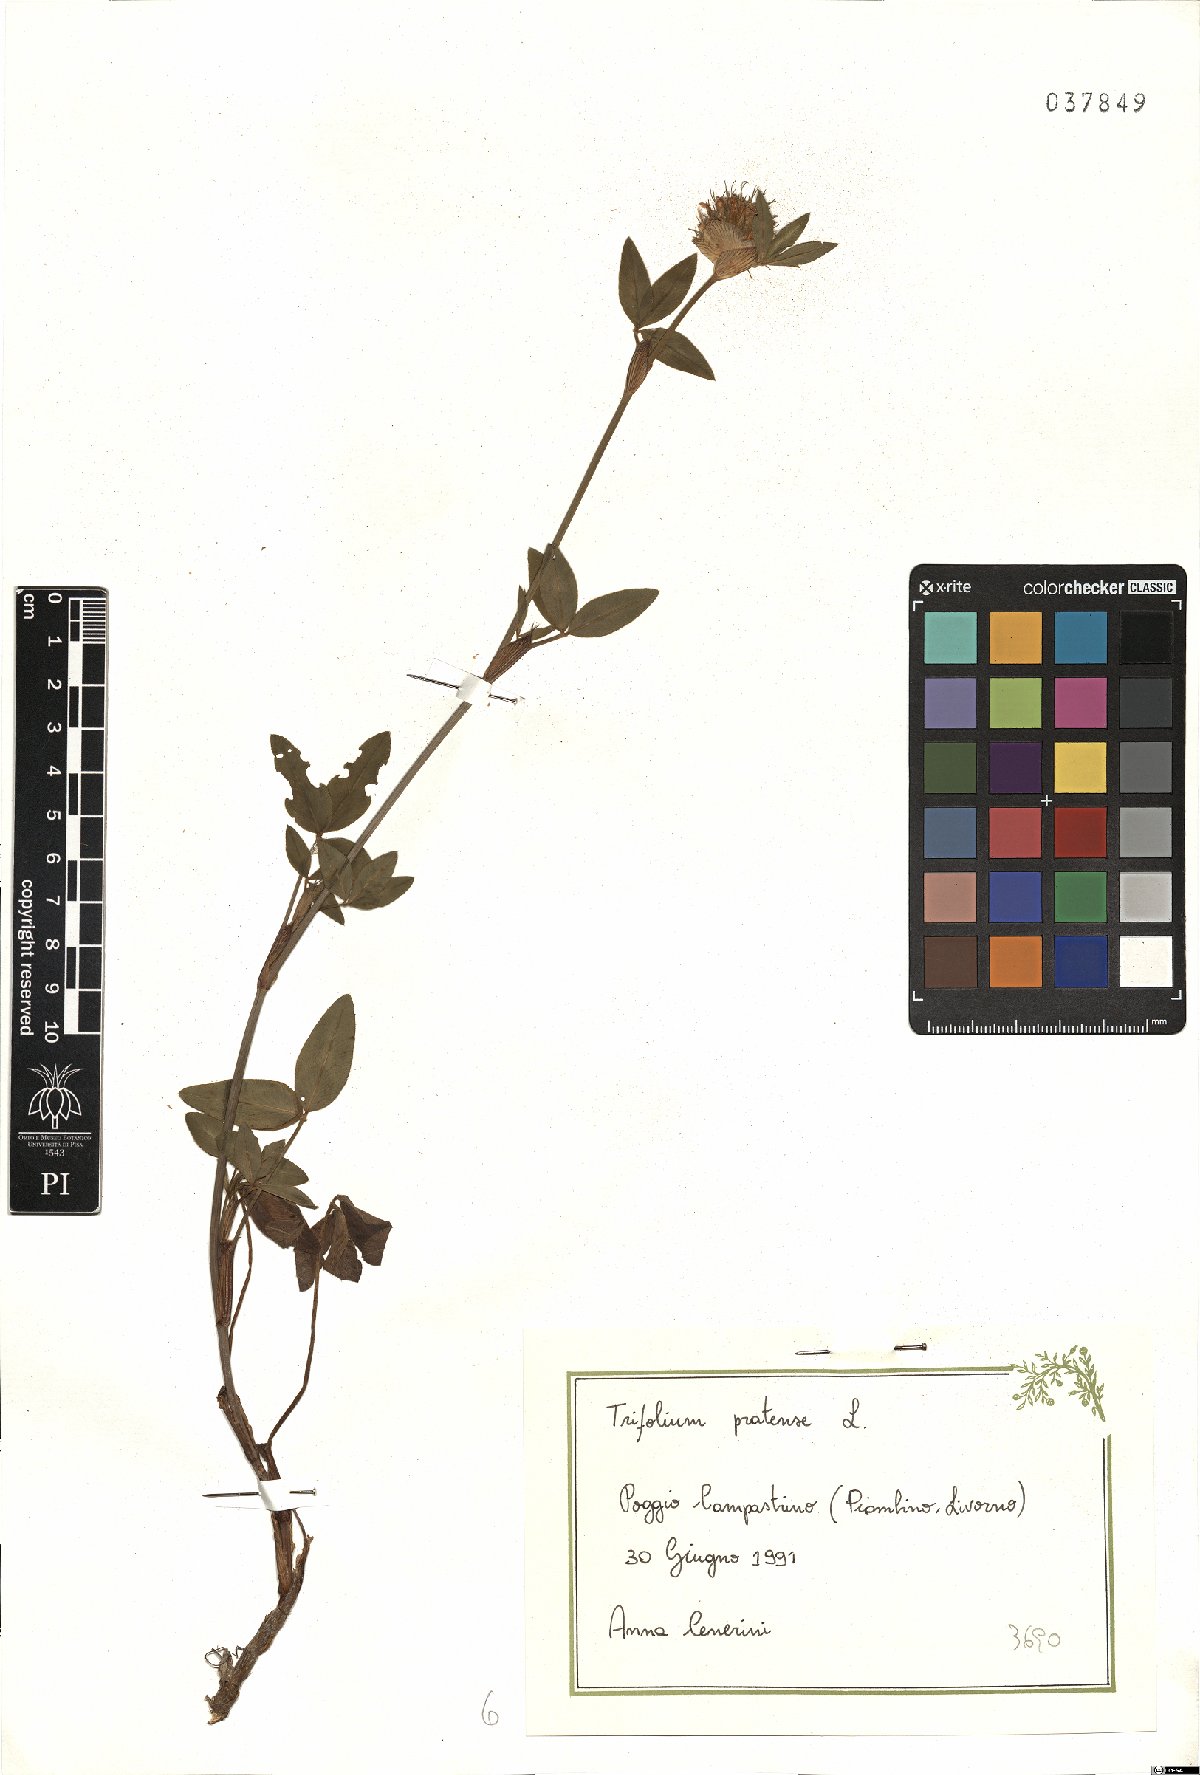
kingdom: Plantae
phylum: Tracheophyta
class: Magnoliopsida
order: Fabales
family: Fabaceae
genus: Trifolium
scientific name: Trifolium pratense
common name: Red clover
